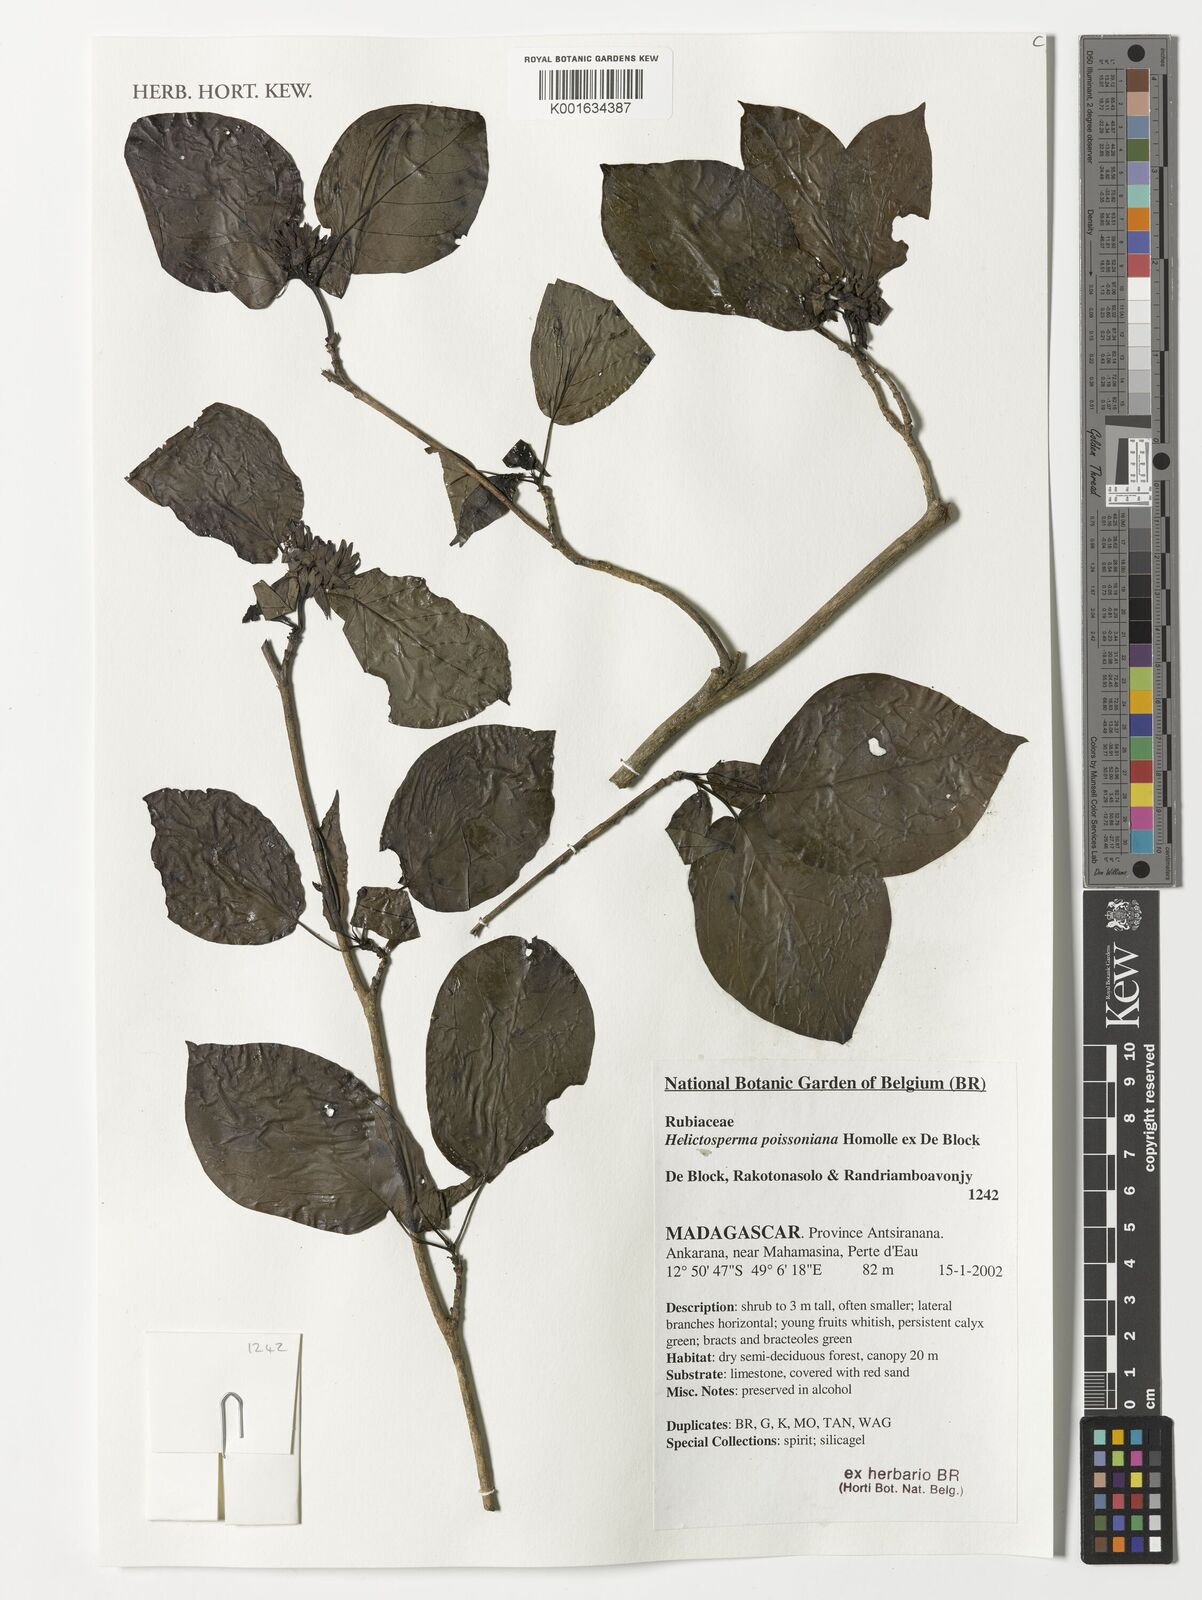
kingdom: Plantae
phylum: Tracheophyta
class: Magnoliopsida
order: Gentianales
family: Rubiaceae
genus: Helictosperma
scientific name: Helictosperma poissonianum
